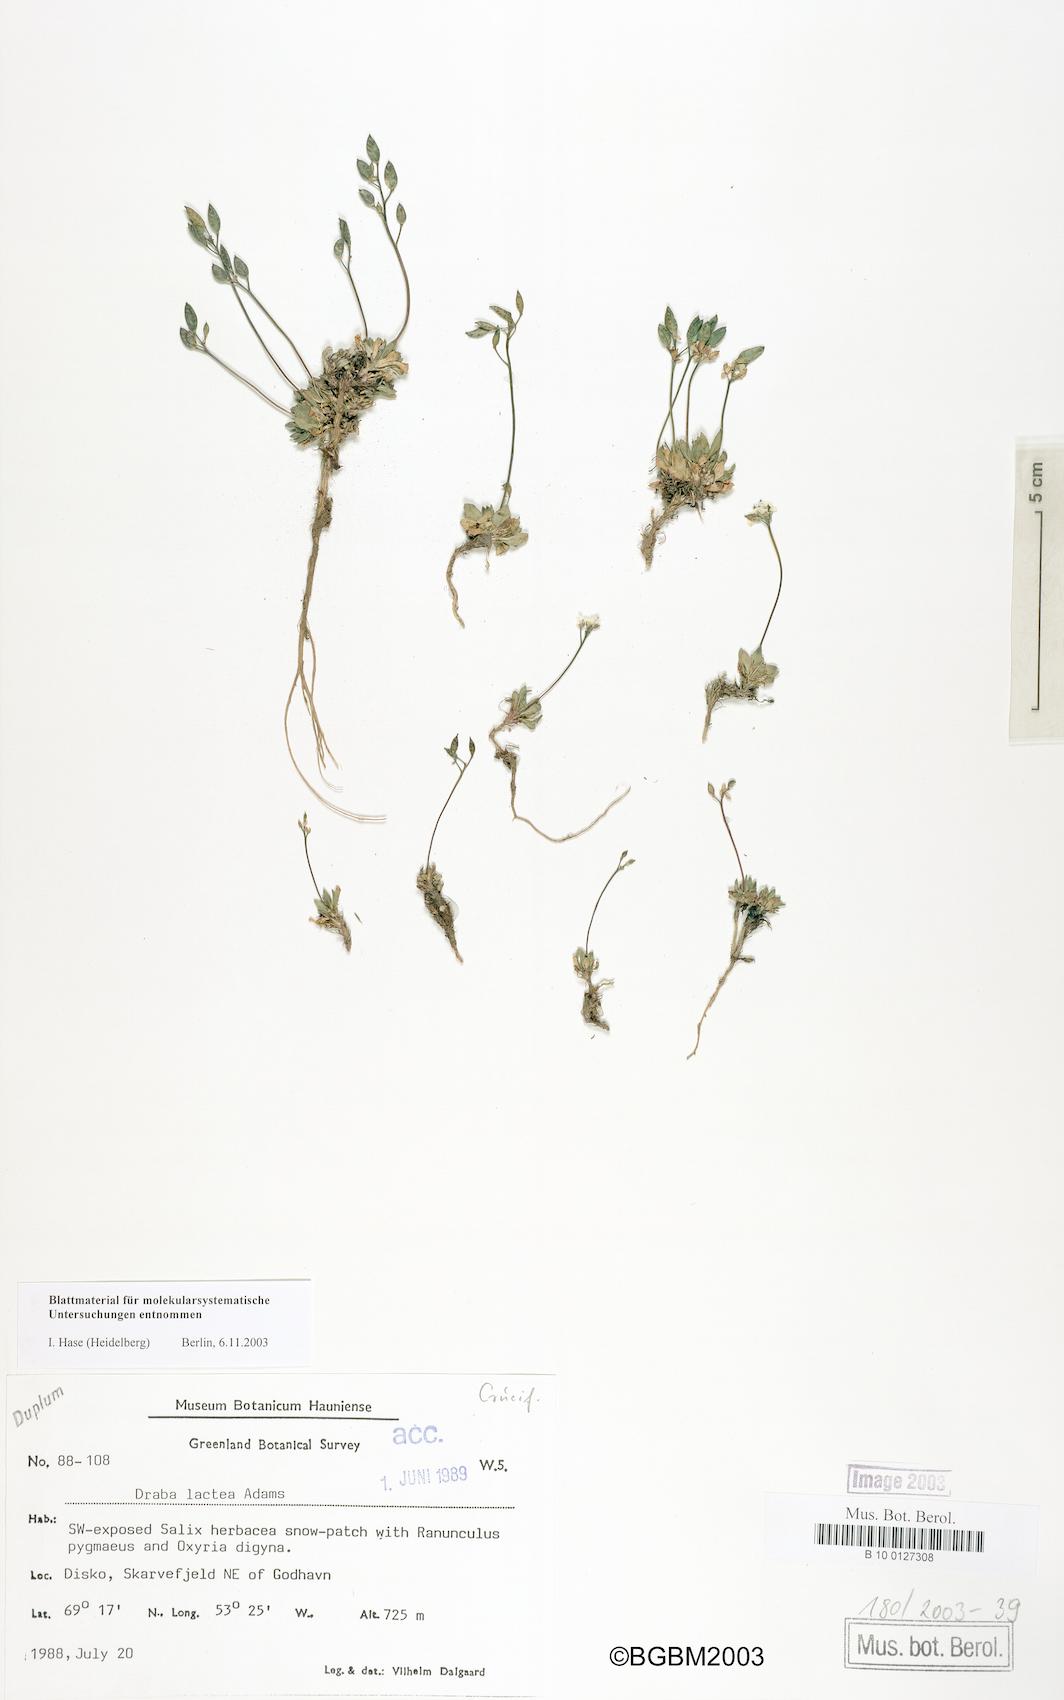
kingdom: Plantae
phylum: Tracheophyta
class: Magnoliopsida
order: Brassicales
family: Brassicaceae
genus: Draba
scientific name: Draba fladnizensis
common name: Austrian draba
